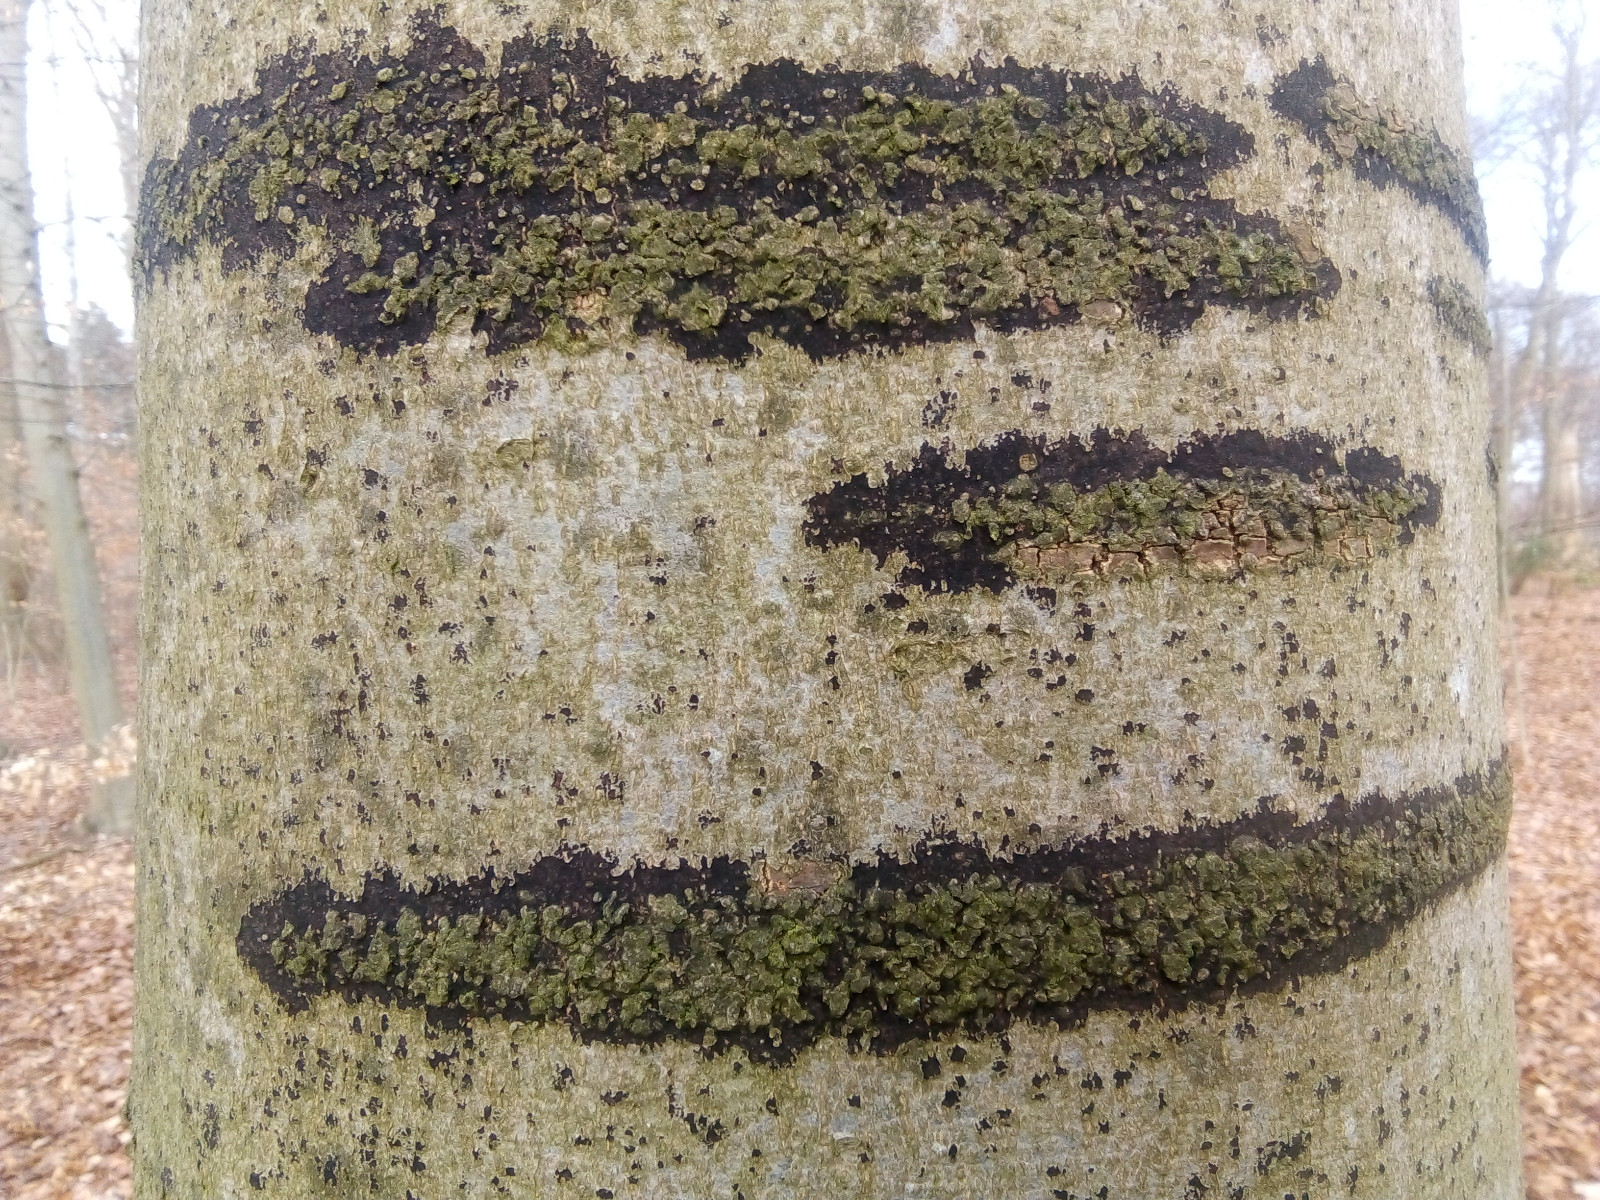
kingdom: Fungi
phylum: Ascomycota
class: Leotiomycetes
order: Rhytismatales
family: Ascodichaenaceae
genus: Ascodichaena
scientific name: Ascodichaena rugosa
